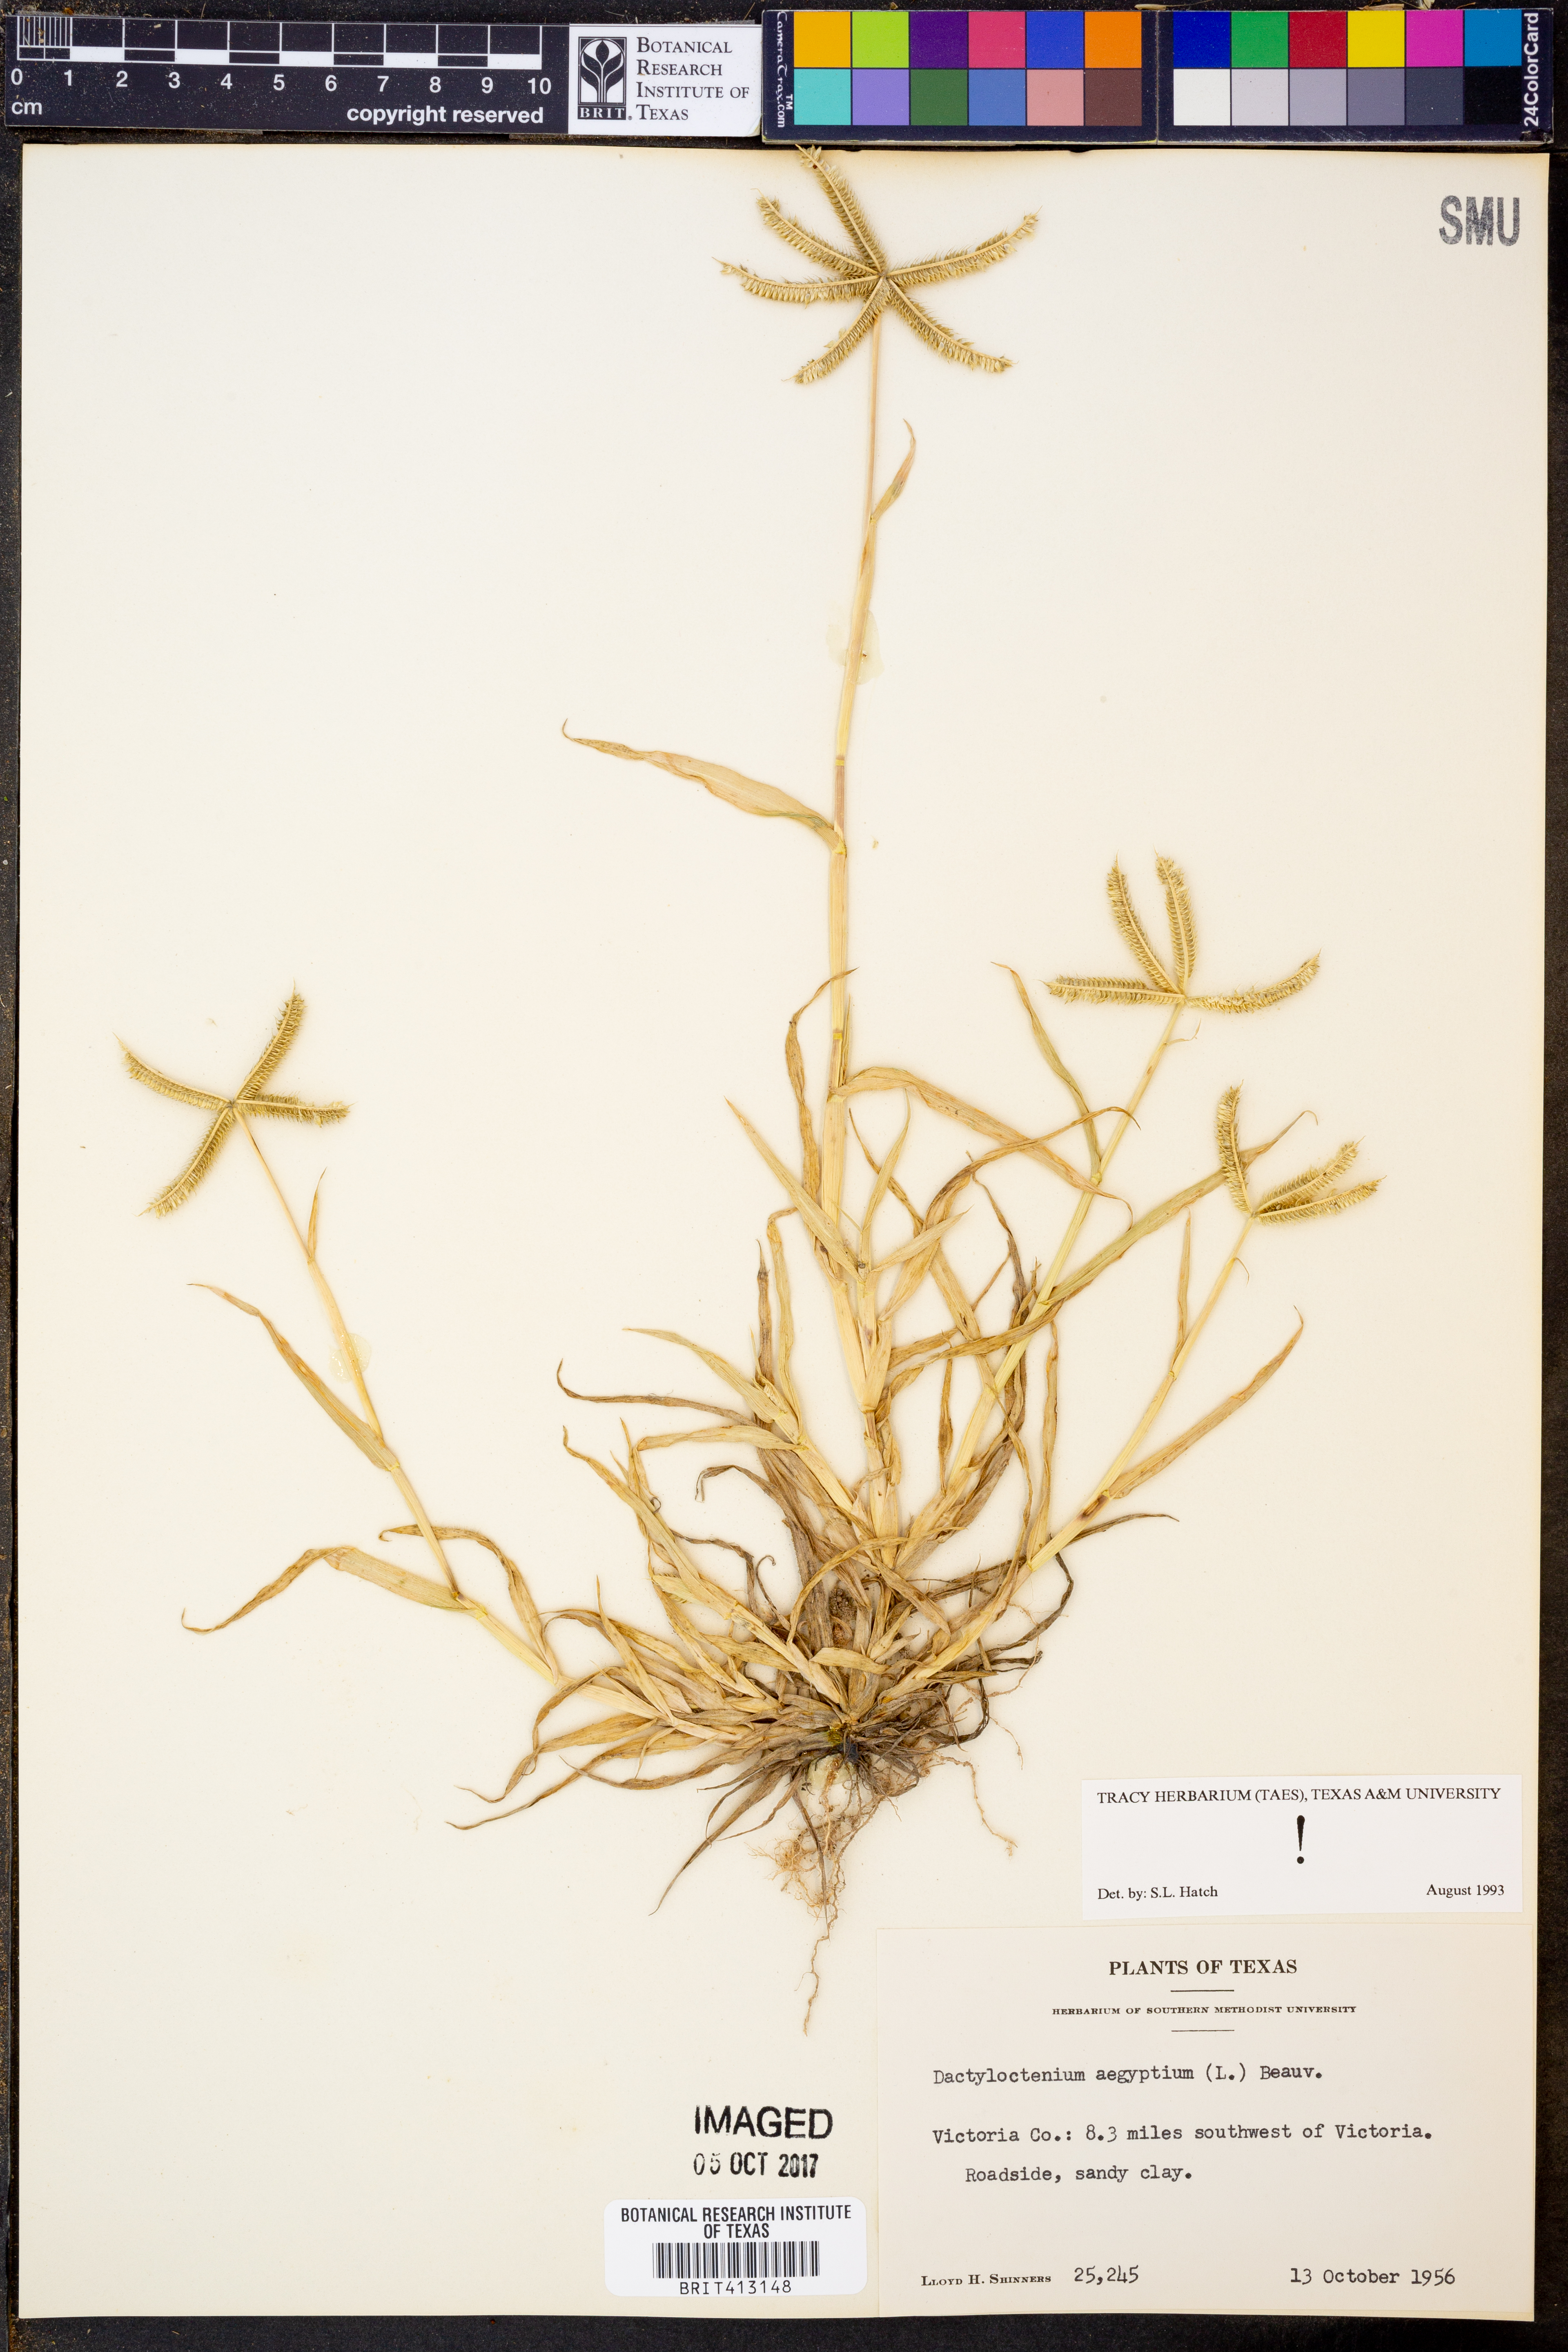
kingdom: Plantae
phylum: Tracheophyta
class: Liliopsida
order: Poales
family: Poaceae
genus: Dactyloctenium
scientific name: Dactyloctenium aegyptium
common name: Egyptian grass
